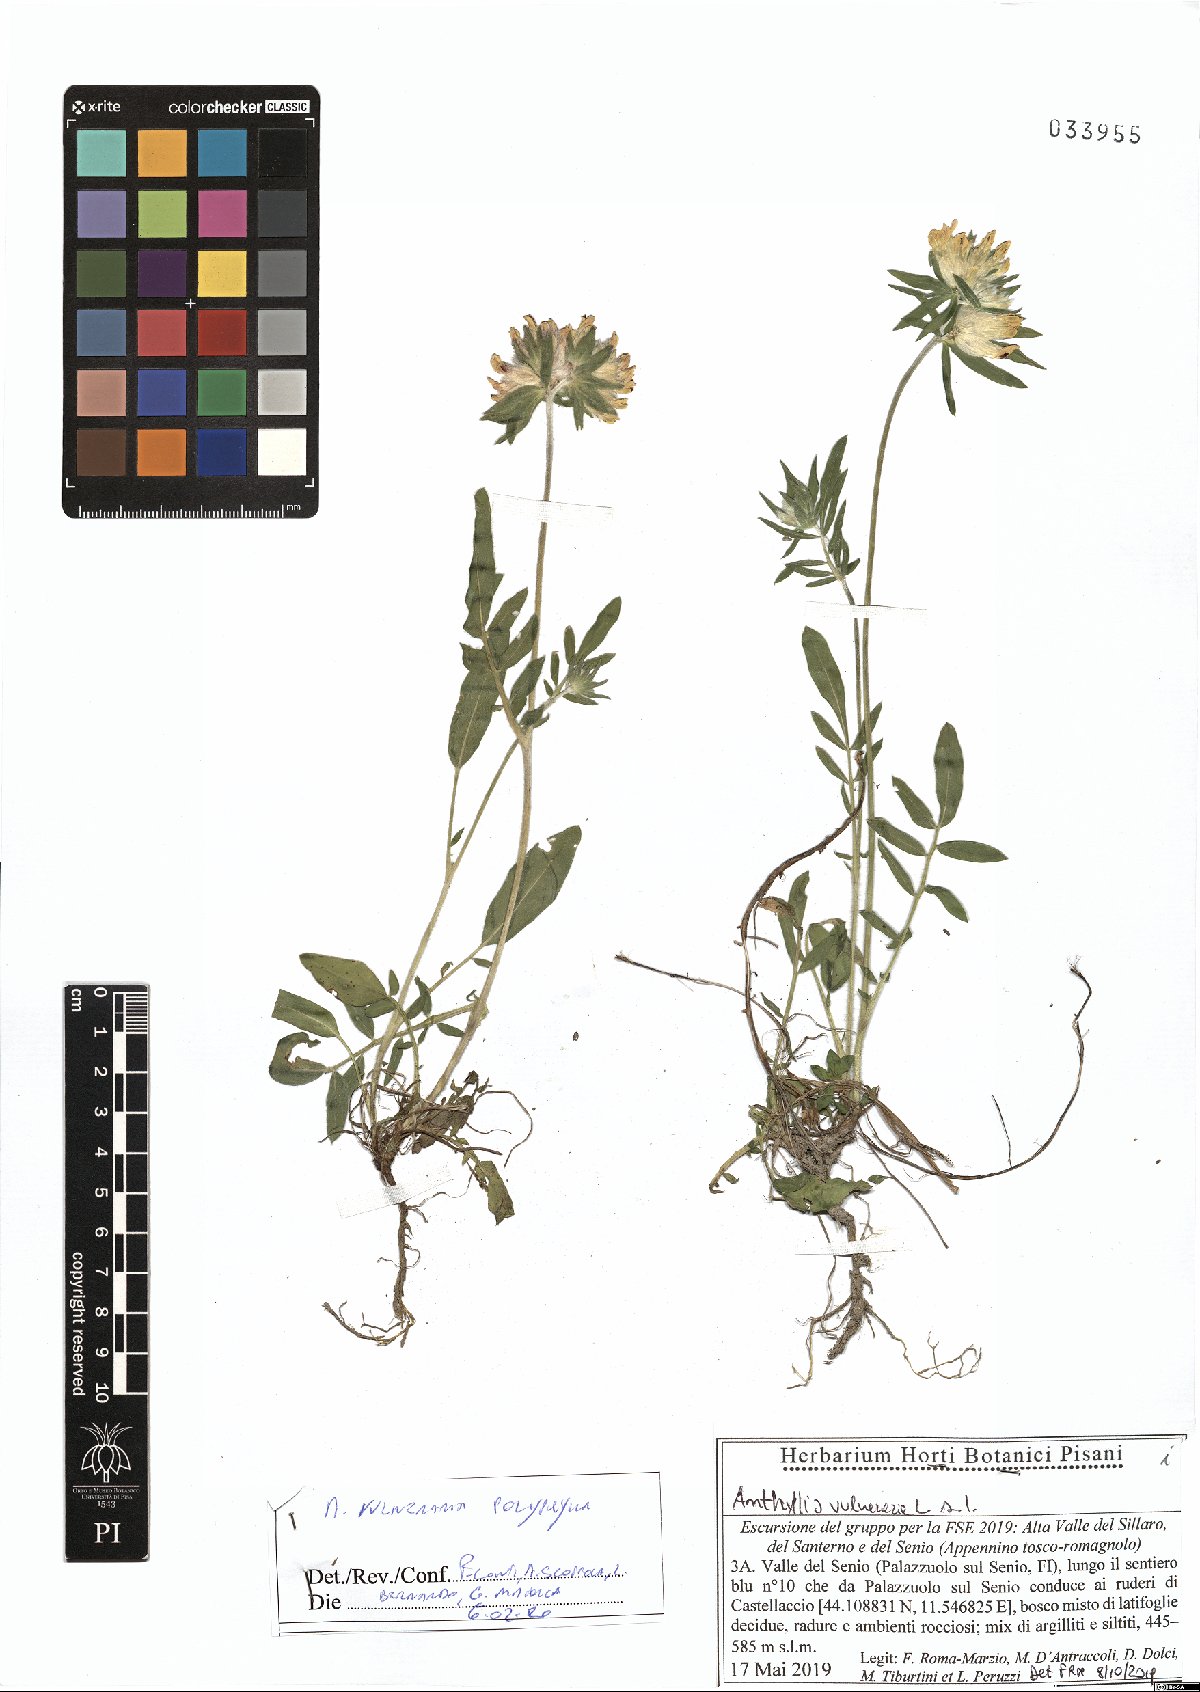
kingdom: Plantae
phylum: Tracheophyta
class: Magnoliopsida
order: Fabales
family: Fabaceae
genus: Anthyllis
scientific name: Anthyllis vulneraria
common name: Kidney vetch
